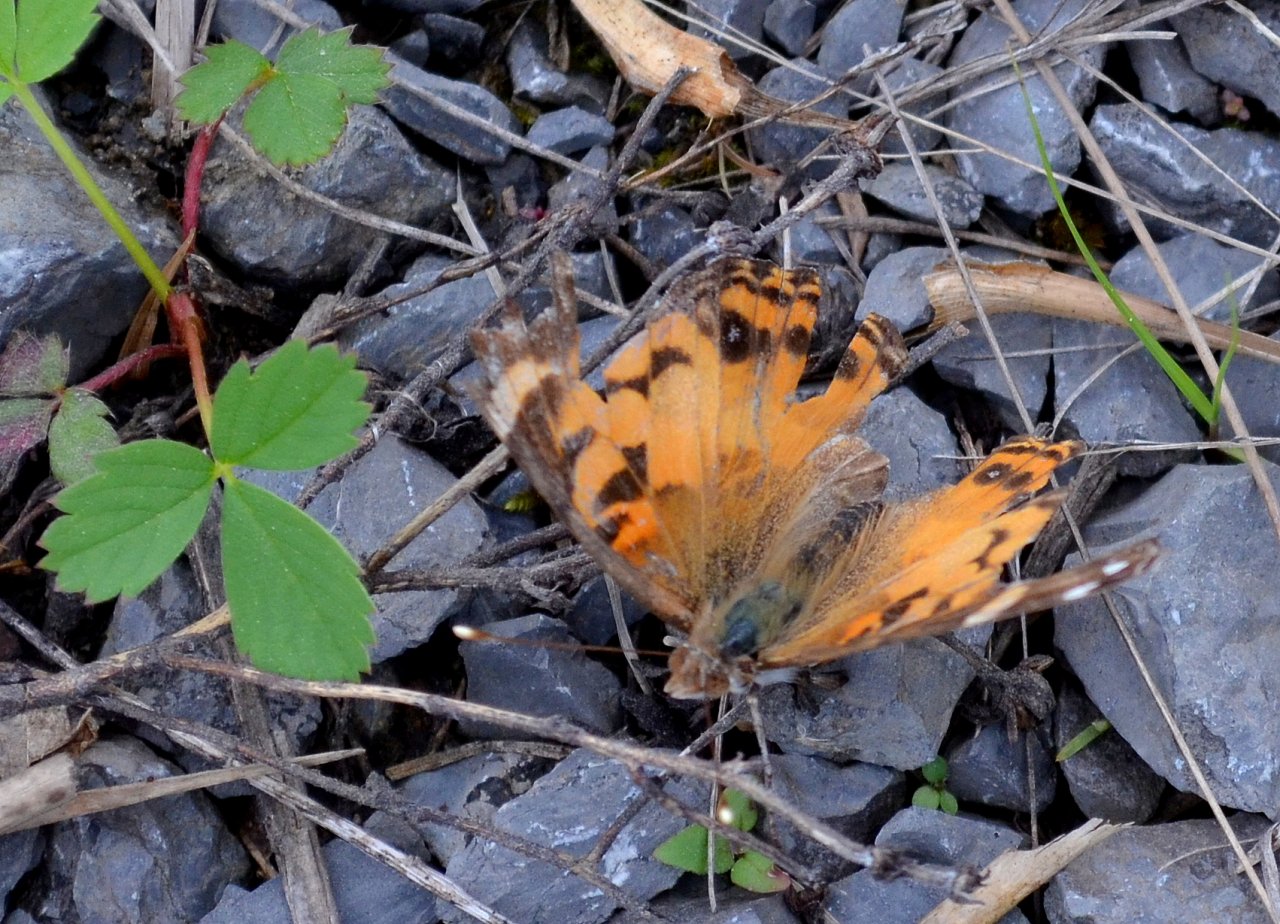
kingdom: Animalia
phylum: Arthropoda
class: Insecta
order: Lepidoptera
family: Nymphalidae
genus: Vanessa
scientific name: Vanessa virginiensis
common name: American Lady
